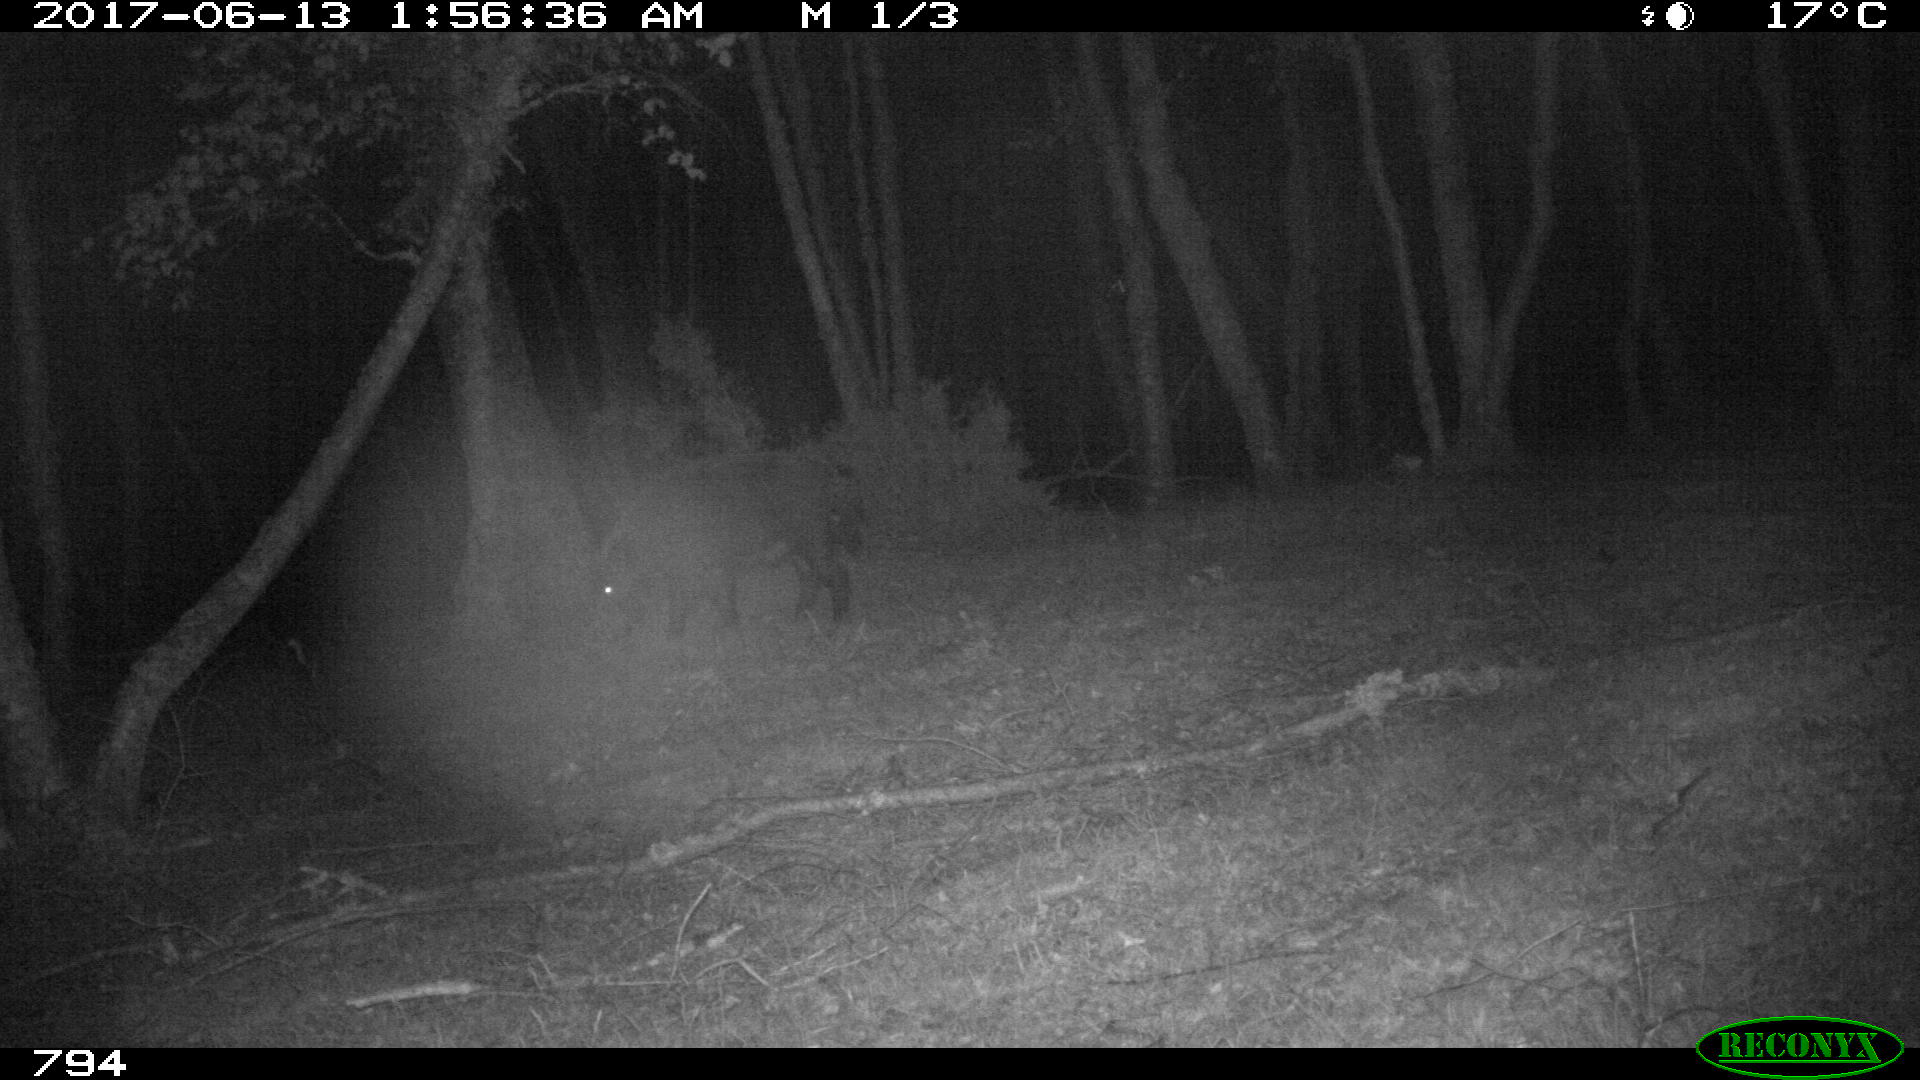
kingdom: Animalia
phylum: Chordata
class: Mammalia
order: Artiodactyla
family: Suidae
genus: Sus
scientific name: Sus scrofa
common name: Wild boar
